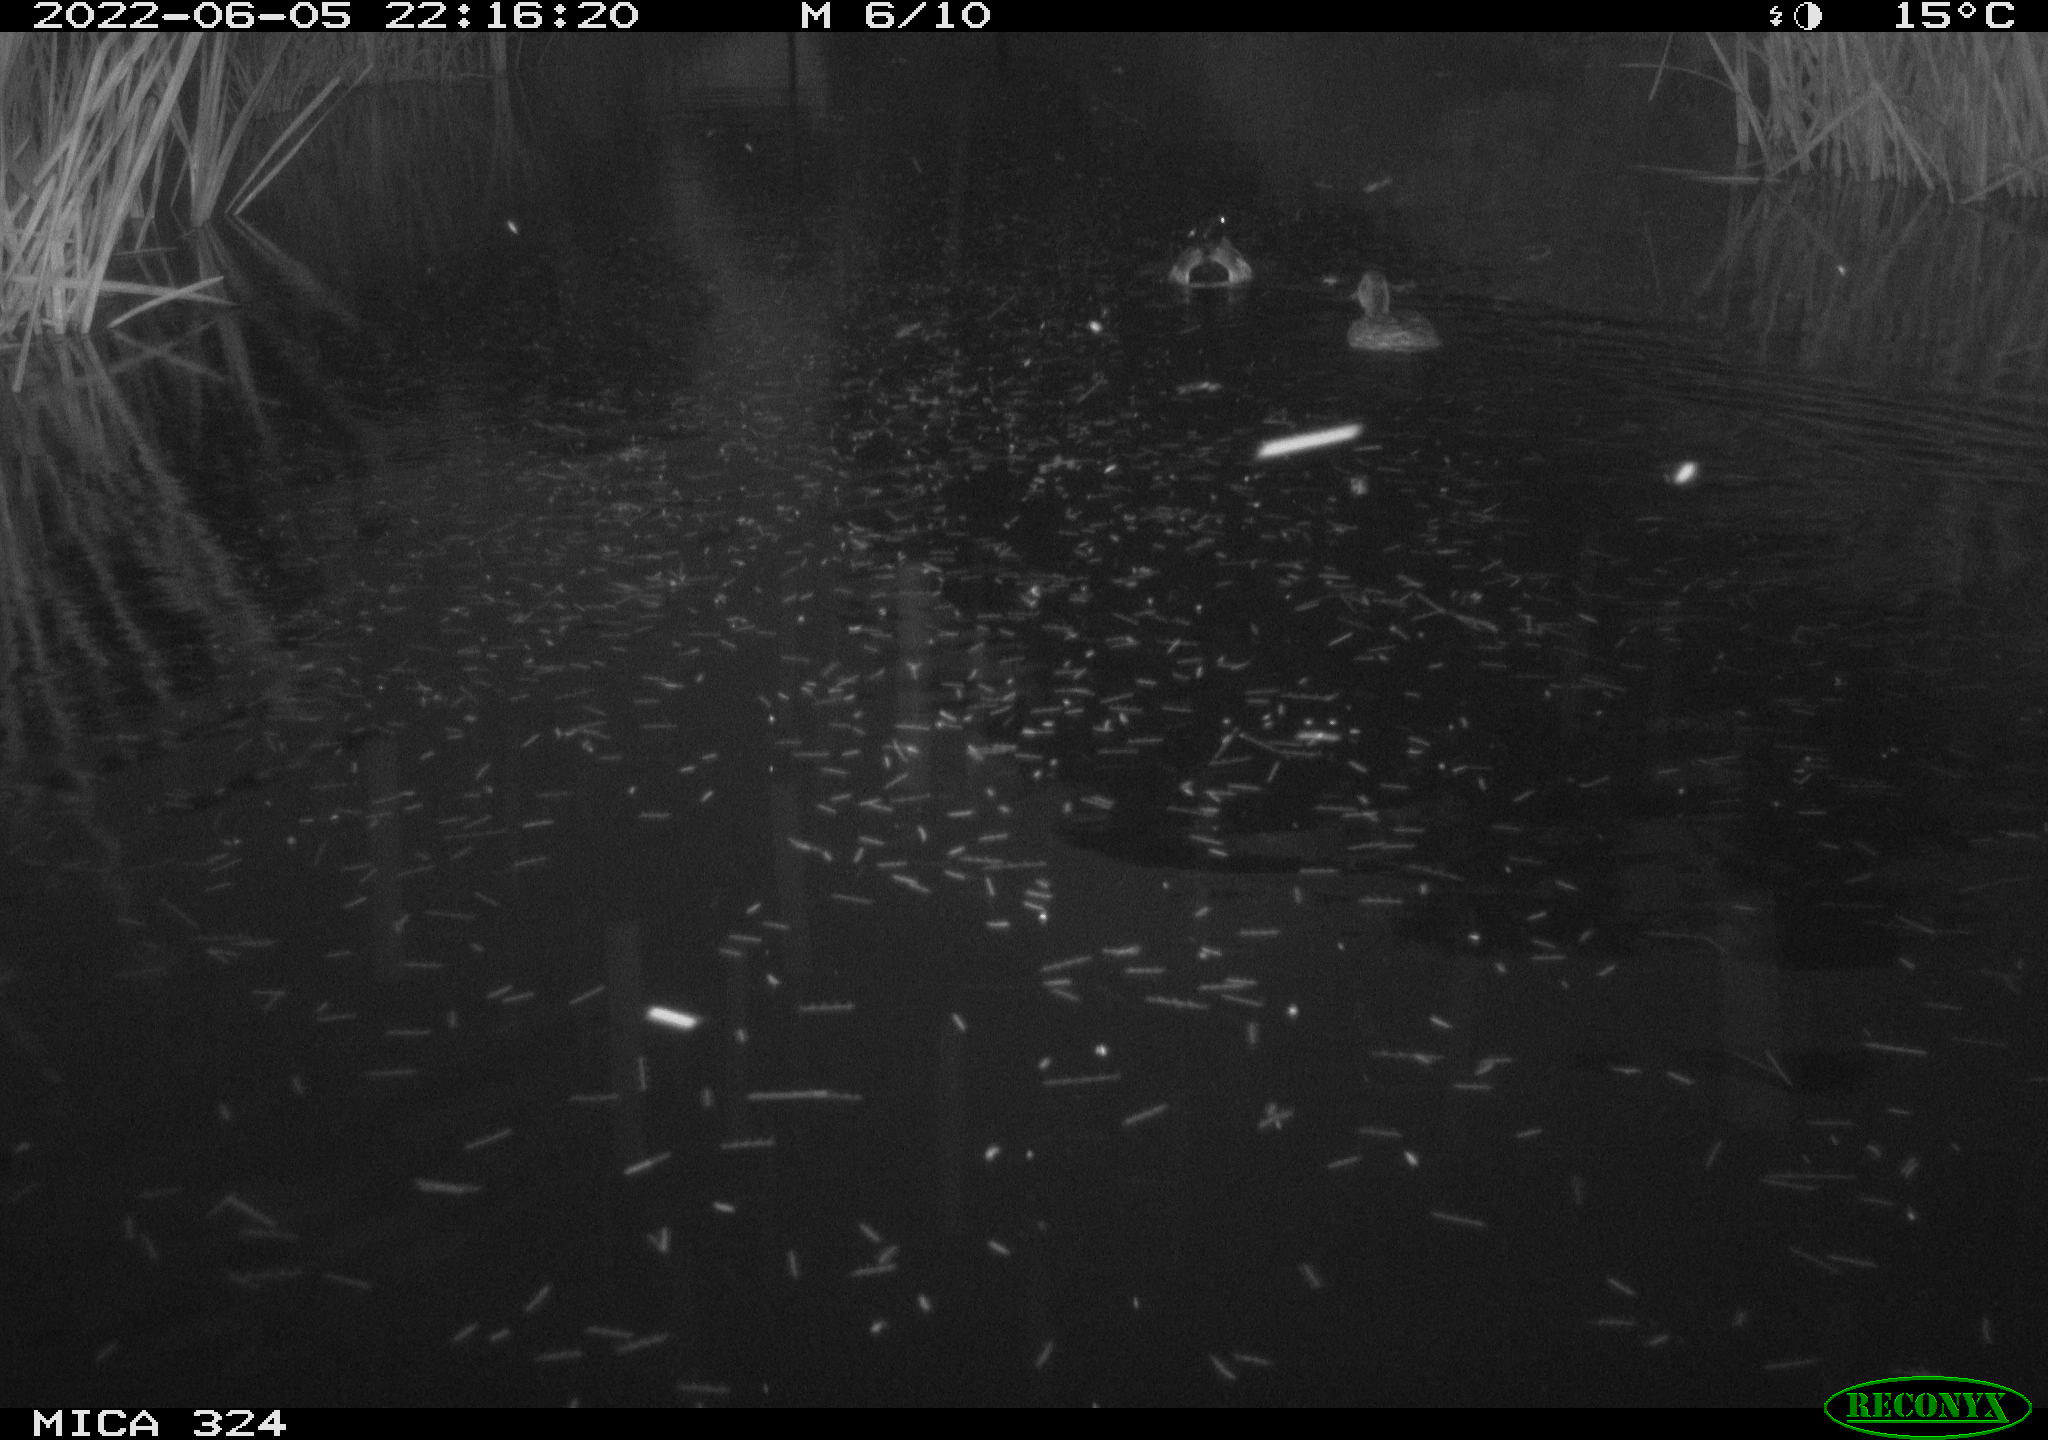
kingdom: Animalia
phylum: Chordata
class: Aves
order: Anseriformes
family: Anatidae
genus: Anas
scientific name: Anas
